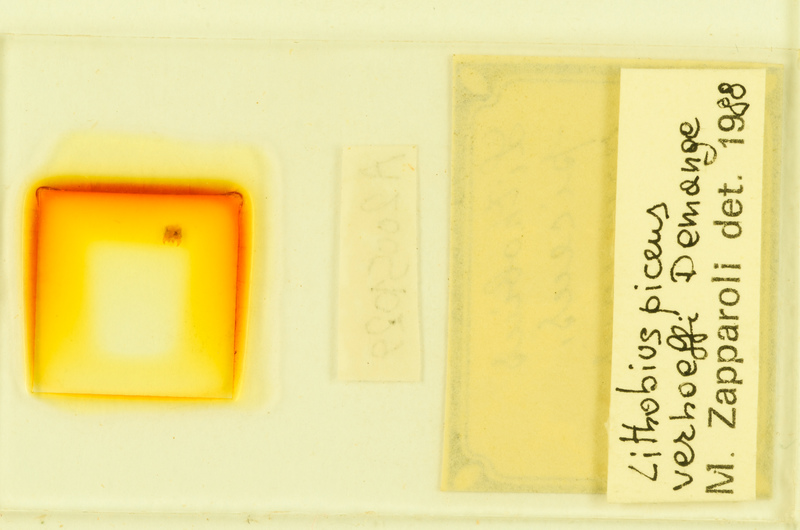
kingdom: Animalia
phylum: Arthropoda
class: Chilopoda
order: Lithobiomorpha
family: Lithobiidae
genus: Lithobius
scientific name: Lithobius piceus
